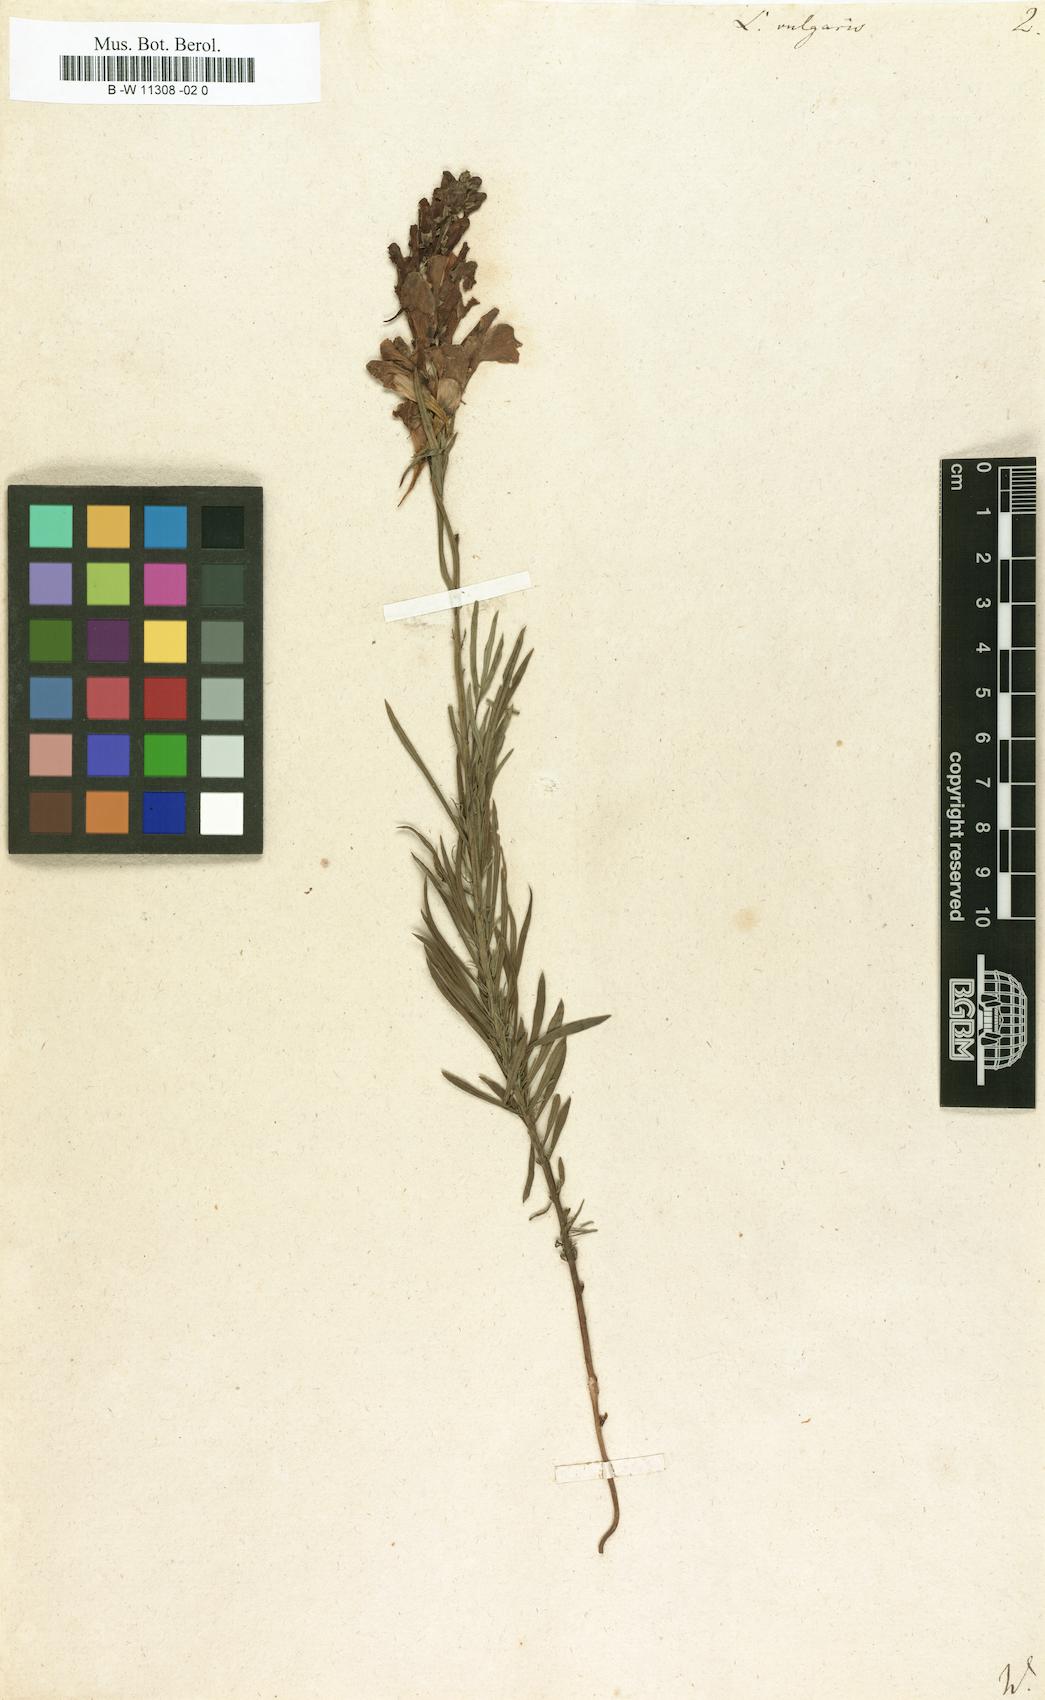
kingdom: Plantae
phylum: Tracheophyta
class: Magnoliopsida
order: Lamiales
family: Plantaginaceae
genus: Linaria
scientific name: Linaria vulgaris
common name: Butter and eggs
